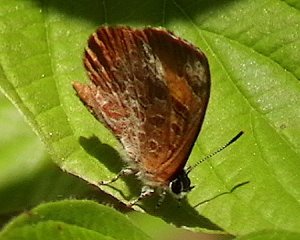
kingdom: Animalia
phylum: Arthropoda
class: Insecta
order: Lepidoptera
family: Lycaenidae
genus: Feniseca
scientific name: Feniseca tarquinius
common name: Harvester
